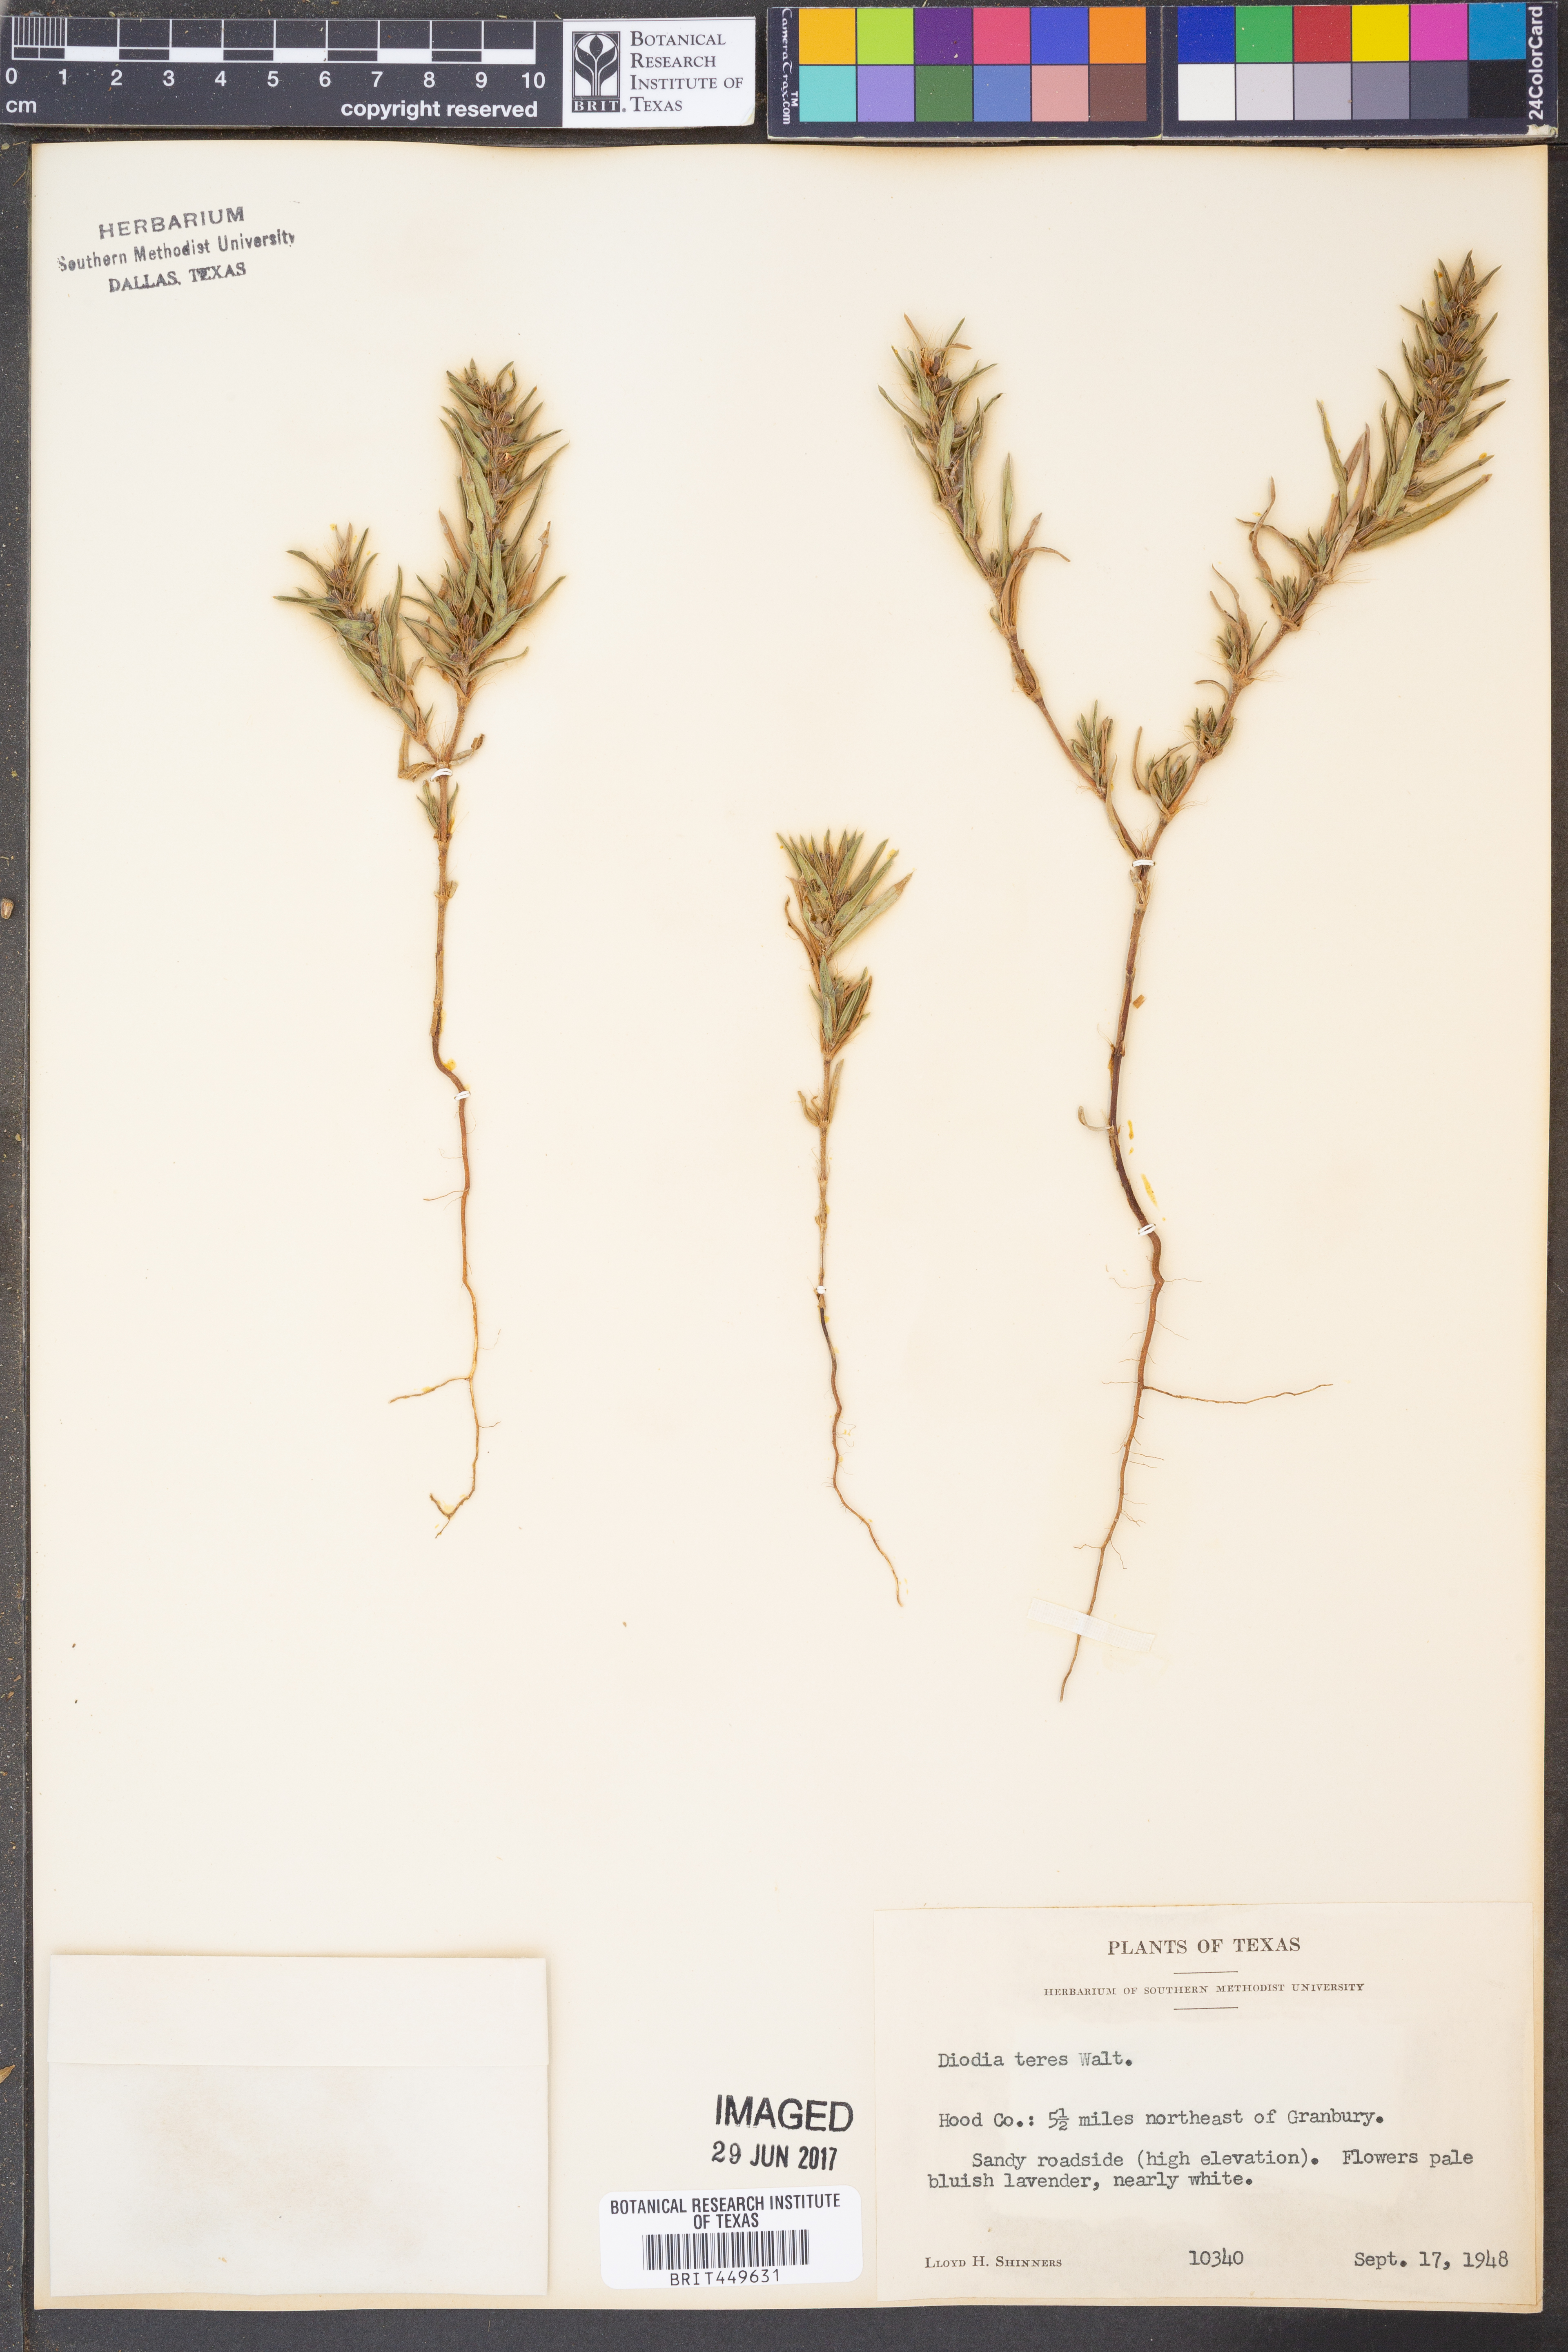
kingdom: Plantae
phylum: Tracheophyta
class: Magnoliopsida
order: Gentianales
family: Rubiaceae
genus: Hexasepalum
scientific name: Hexasepalum teres
